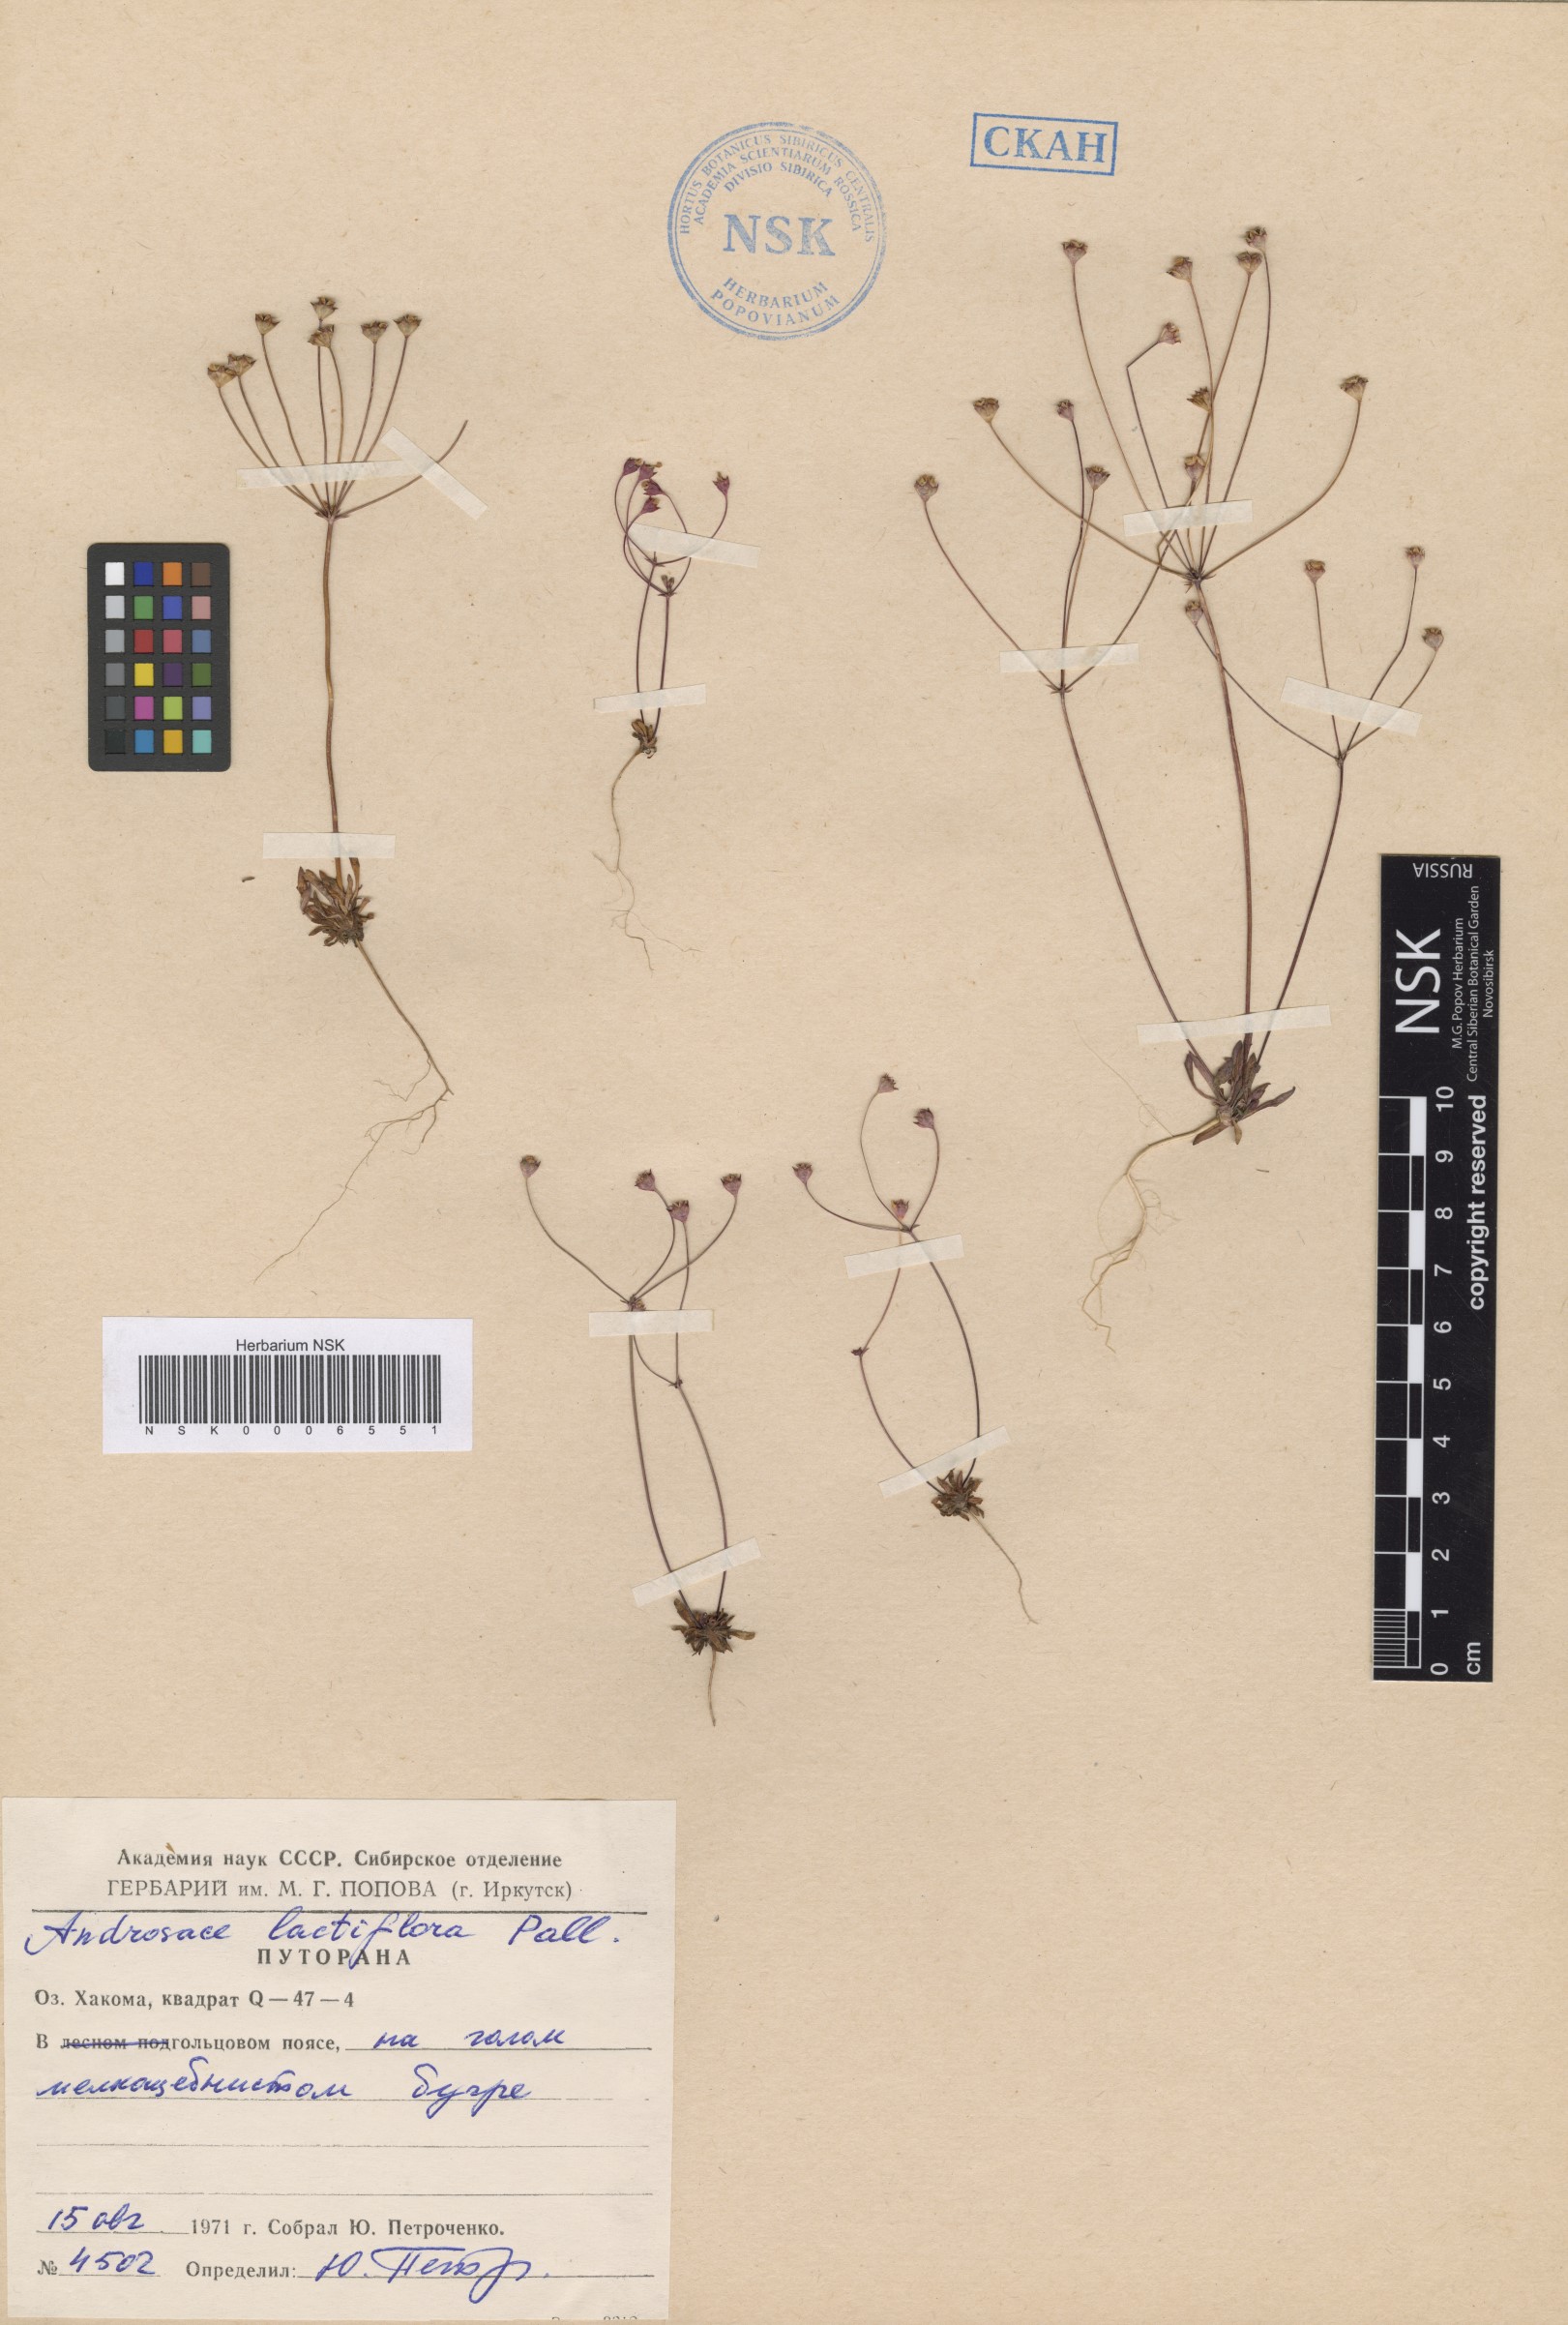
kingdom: Plantae
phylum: Tracheophyta
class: Magnoliopsida
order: Ericales
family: Primulaceae
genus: Androsace
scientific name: Androsace lactiflora
